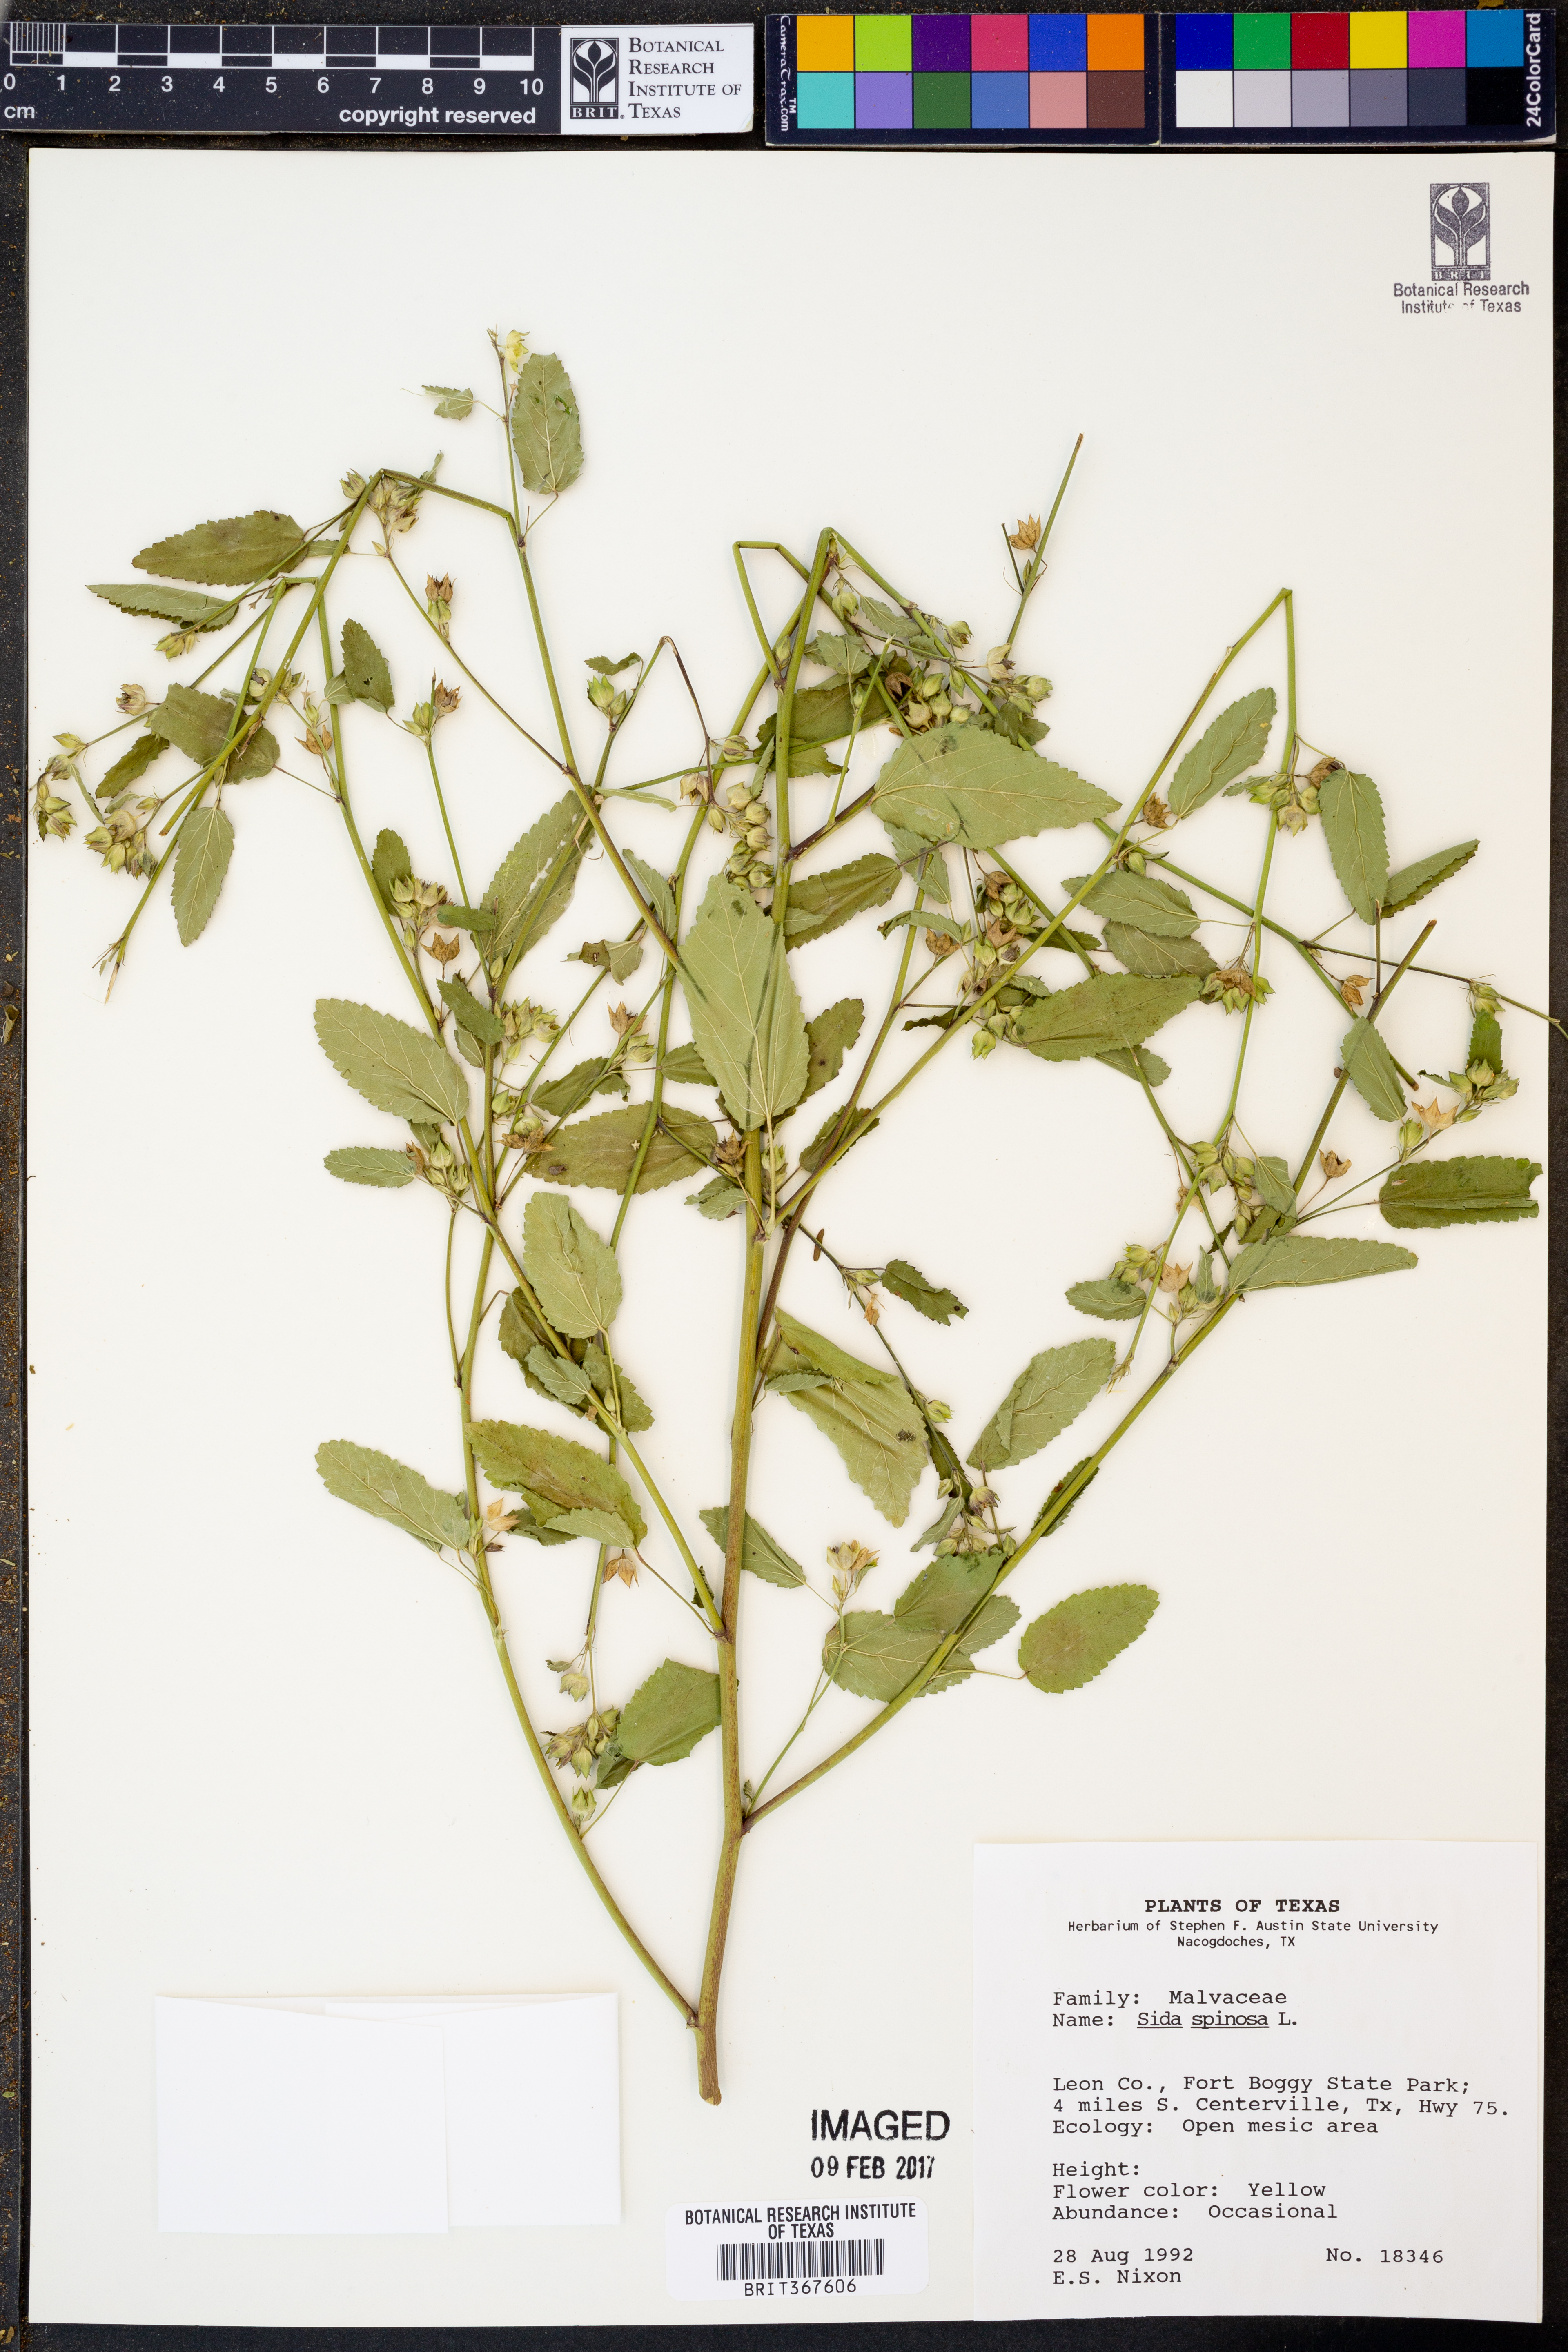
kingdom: Plantae
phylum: Tracheophyta
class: Magnoliopsida
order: Malvales
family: Malvaceae
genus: Sida
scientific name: Sida spinosa
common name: Prickly fanpetals
